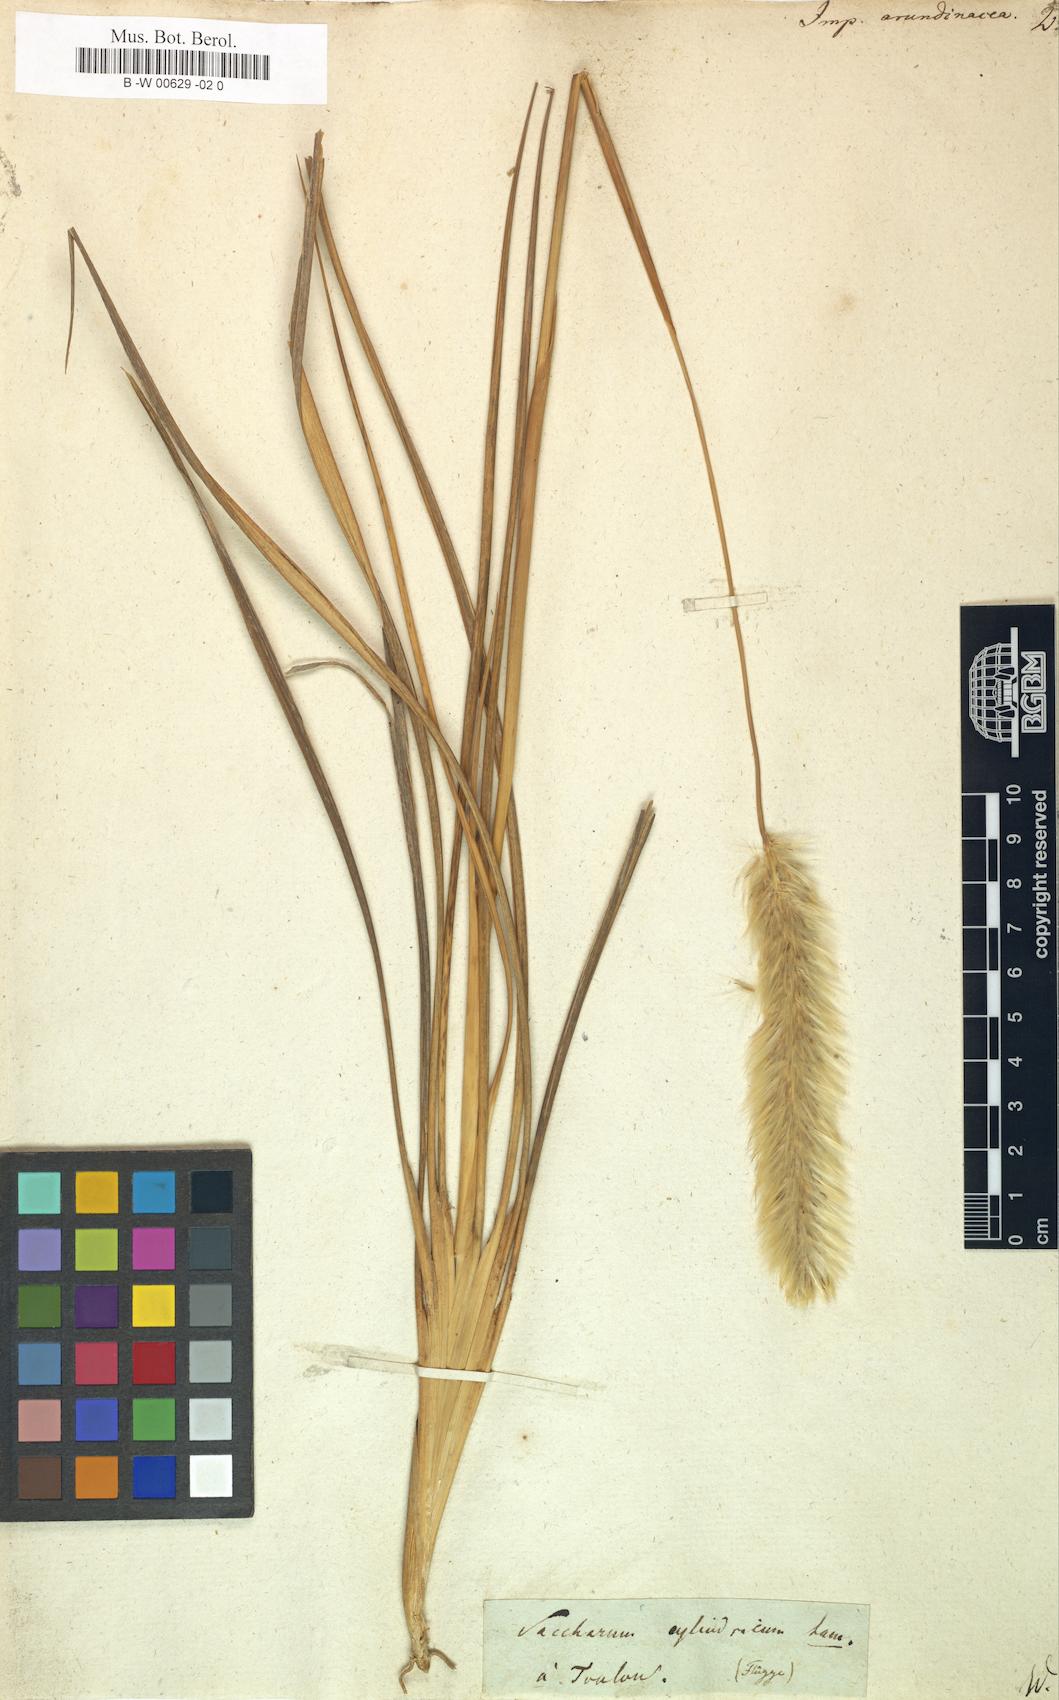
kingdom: Plantae
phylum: Tracheophyta
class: Liliopsida
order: Poales
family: Poaceae
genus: Imperata
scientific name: Imperata cylindrica
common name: Cogongrass
